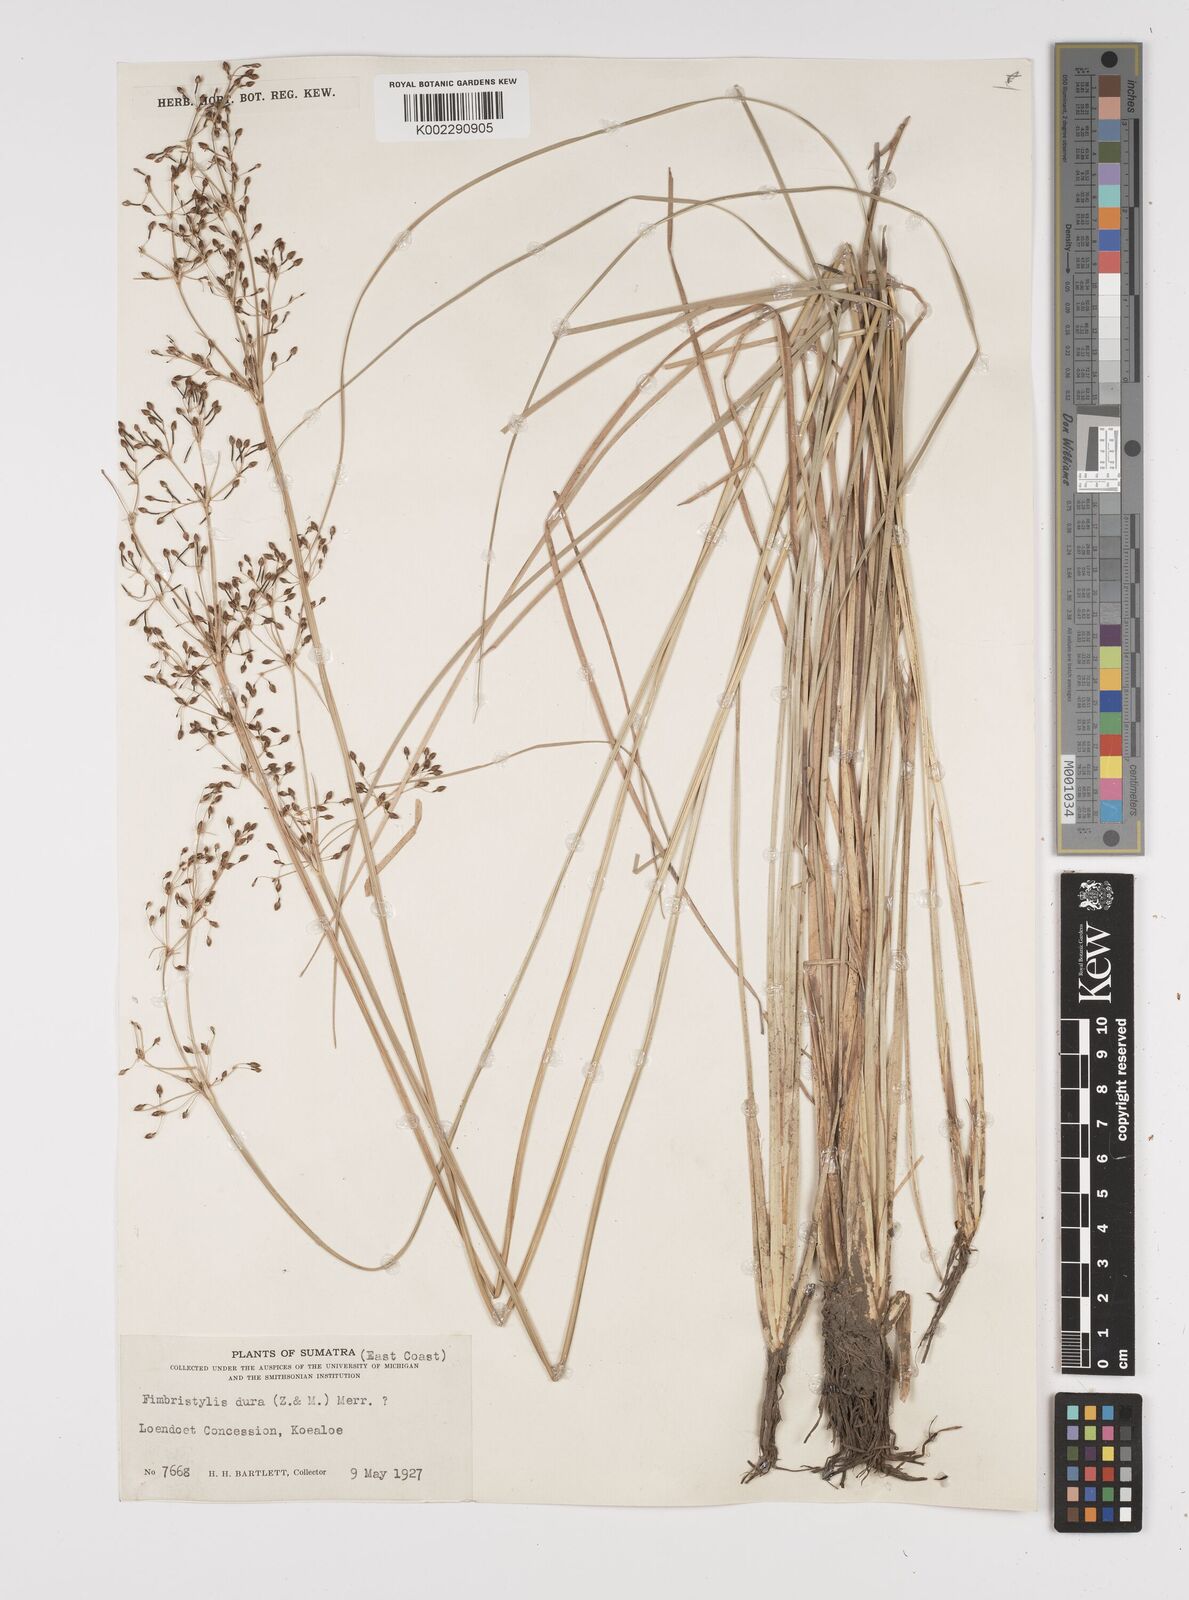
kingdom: Plantae
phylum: Tracheophyta
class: Liliopsida
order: Poales
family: Cyperaceae
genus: Fimbristylis
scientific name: Fimbristylis dura
